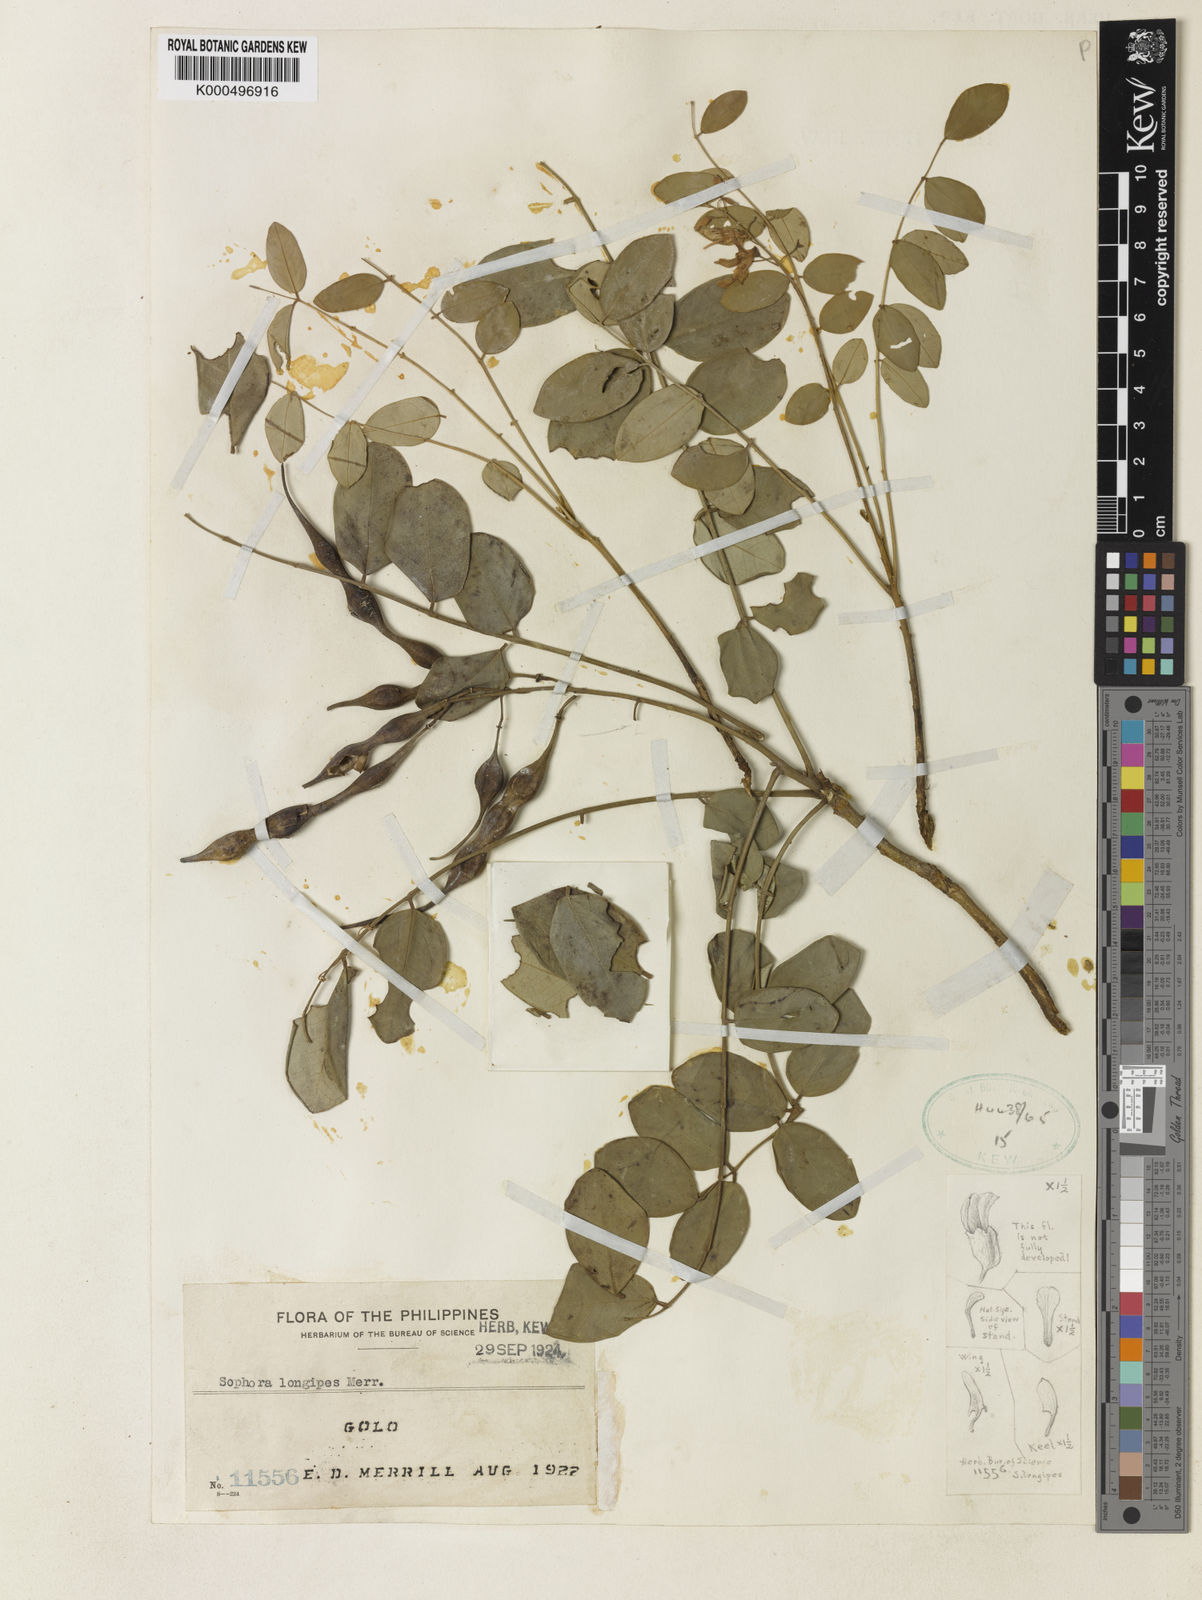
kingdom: Plantae
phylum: Tracheophyta
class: Magnoliopsida
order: Fabales
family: Fabaceae
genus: Sophora
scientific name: Sophora longipes
